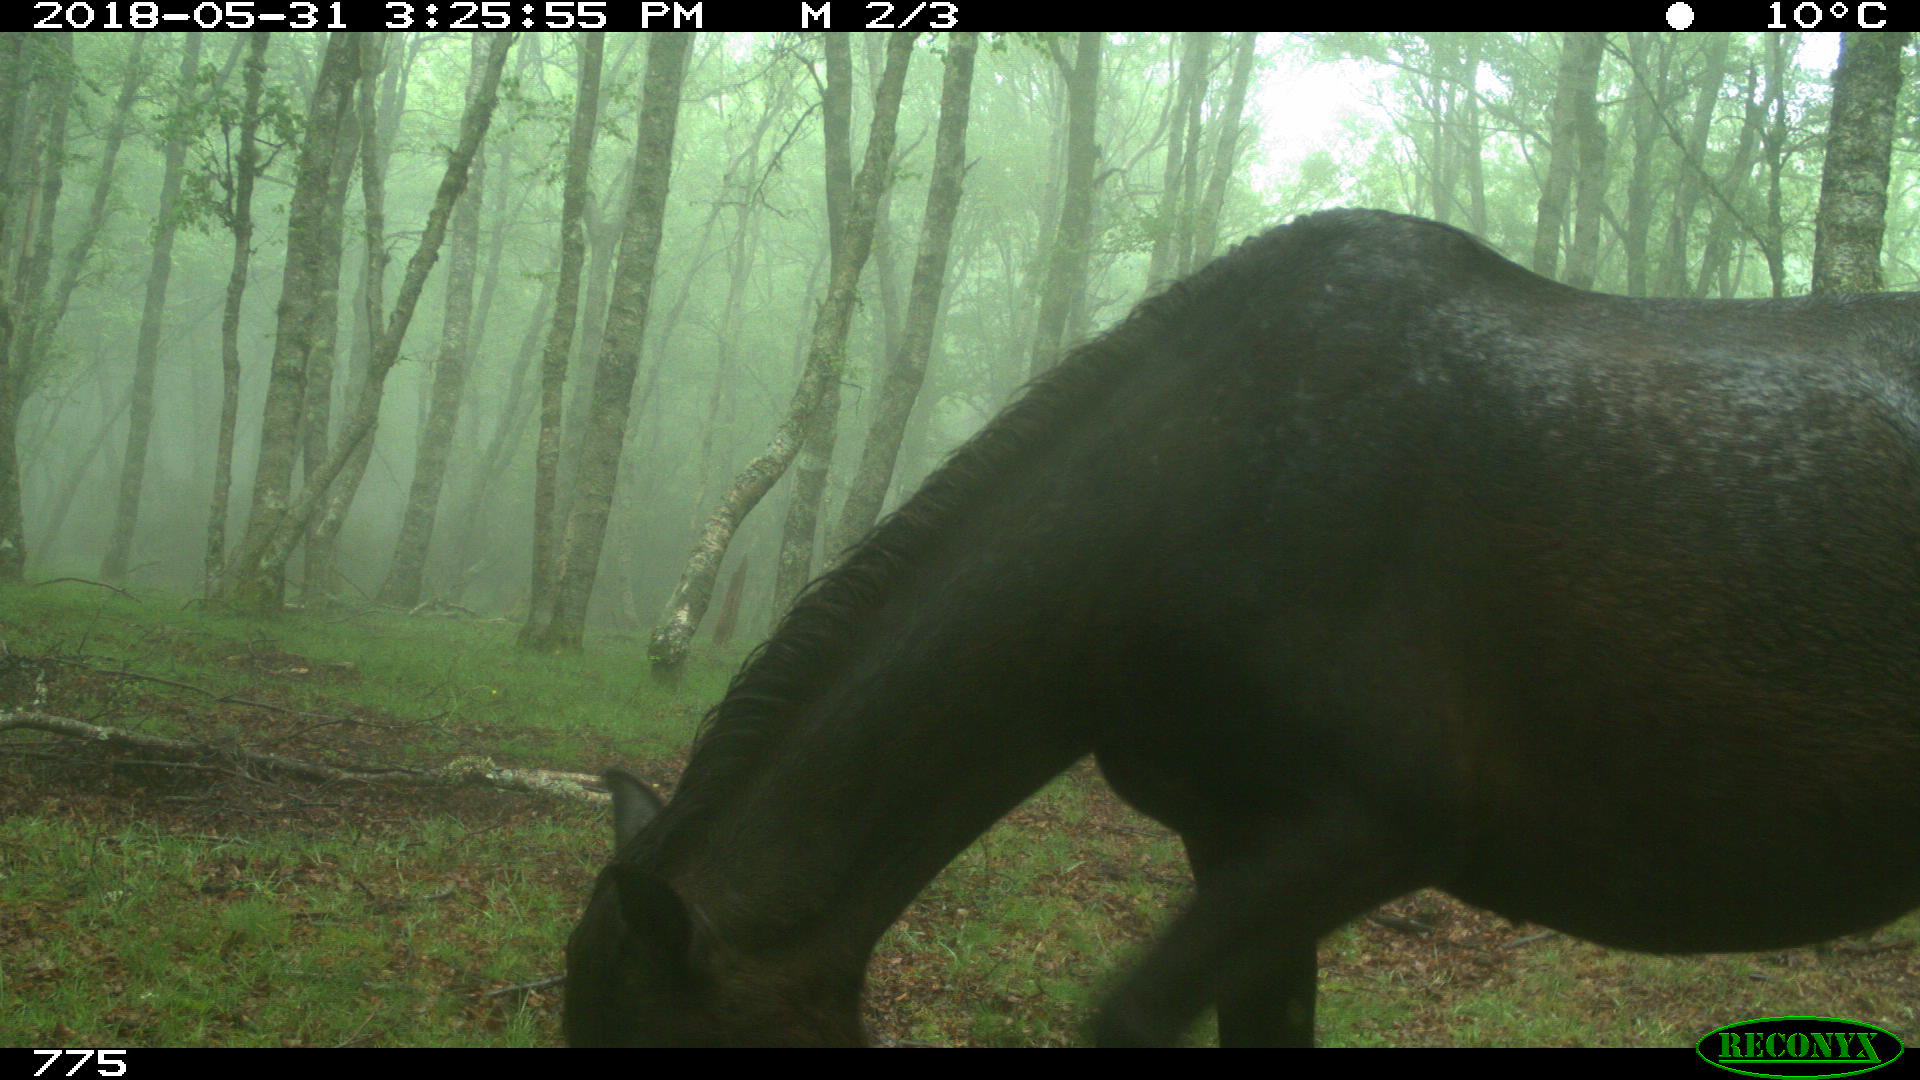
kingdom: Animalia
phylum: Chordata
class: Mammalia
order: Perissodactyla
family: Equidae
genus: Equus
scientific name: Equus caballus
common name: Horse
